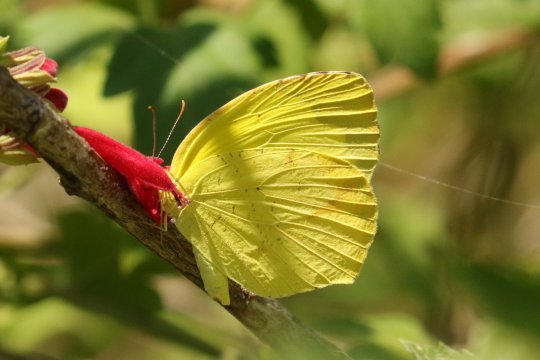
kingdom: Animalia
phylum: Arthropoda
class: Insecta
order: Lepidoptera
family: Pieridae
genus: Eurema
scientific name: Eurema boisduvaliana
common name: Boisduval's Yellow
